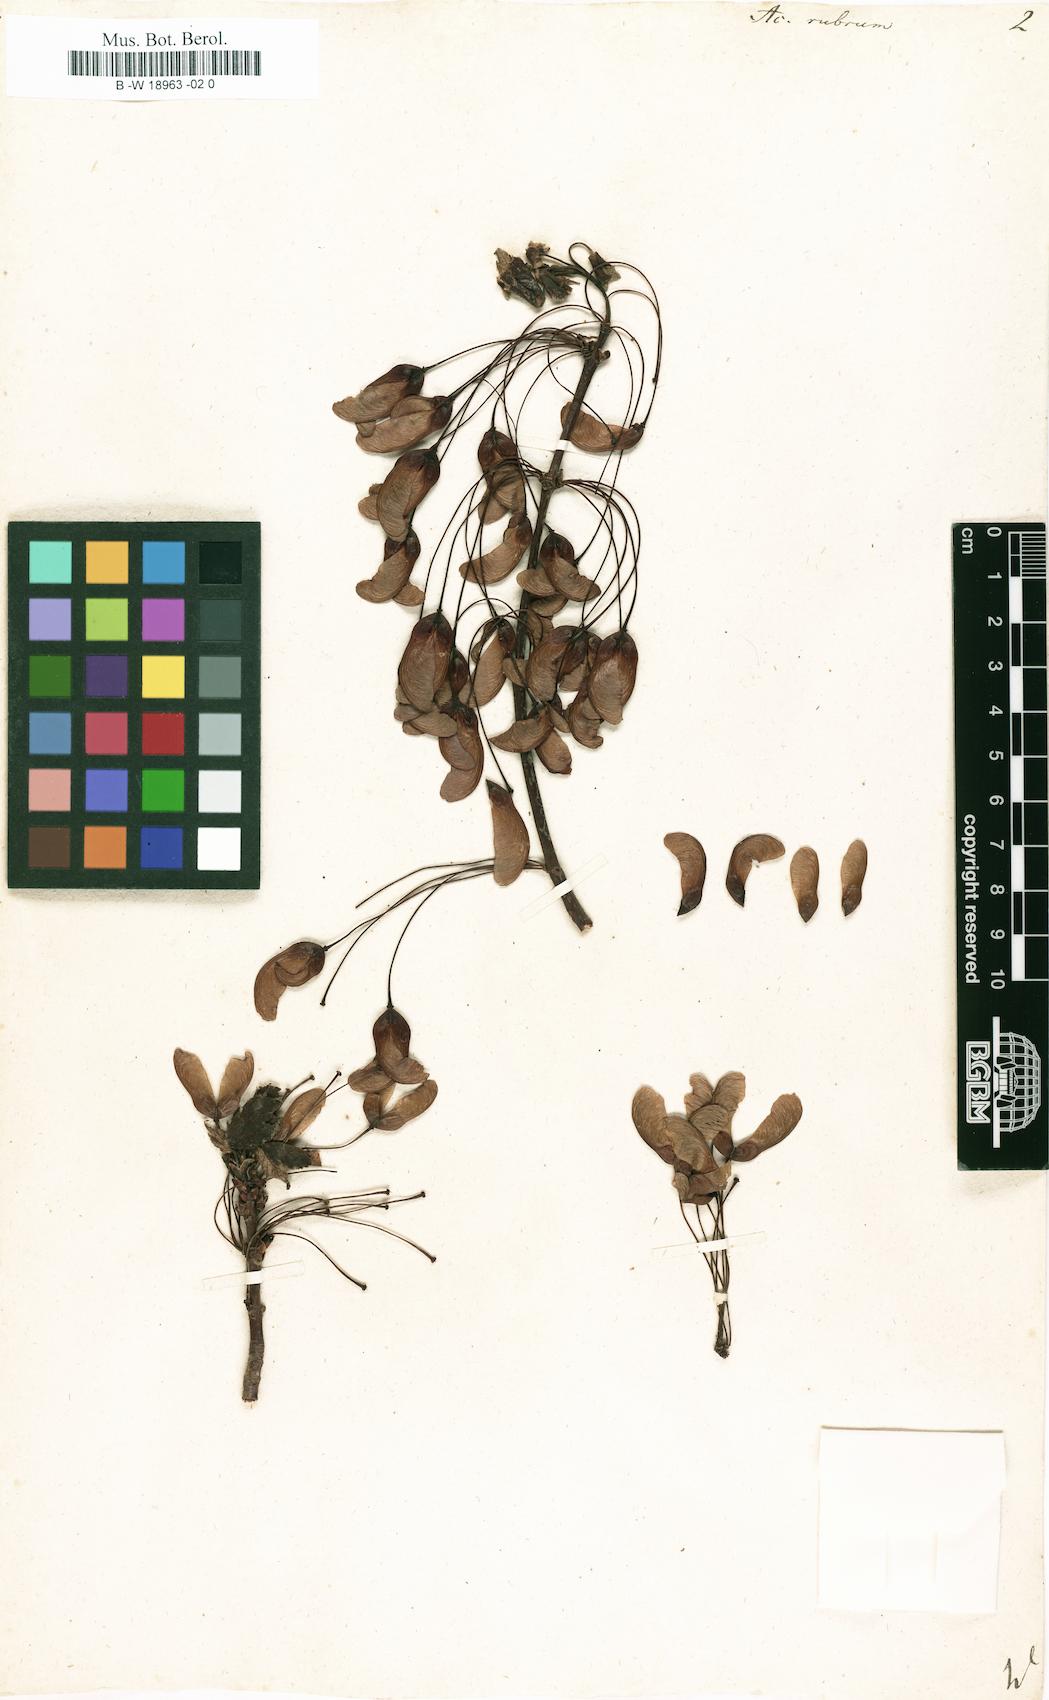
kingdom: Plantae
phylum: Tracheophyta
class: Magnoliopsida
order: Sapindales
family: Sapindaceae
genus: Acer
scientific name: Acer rubrum
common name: Red maple
